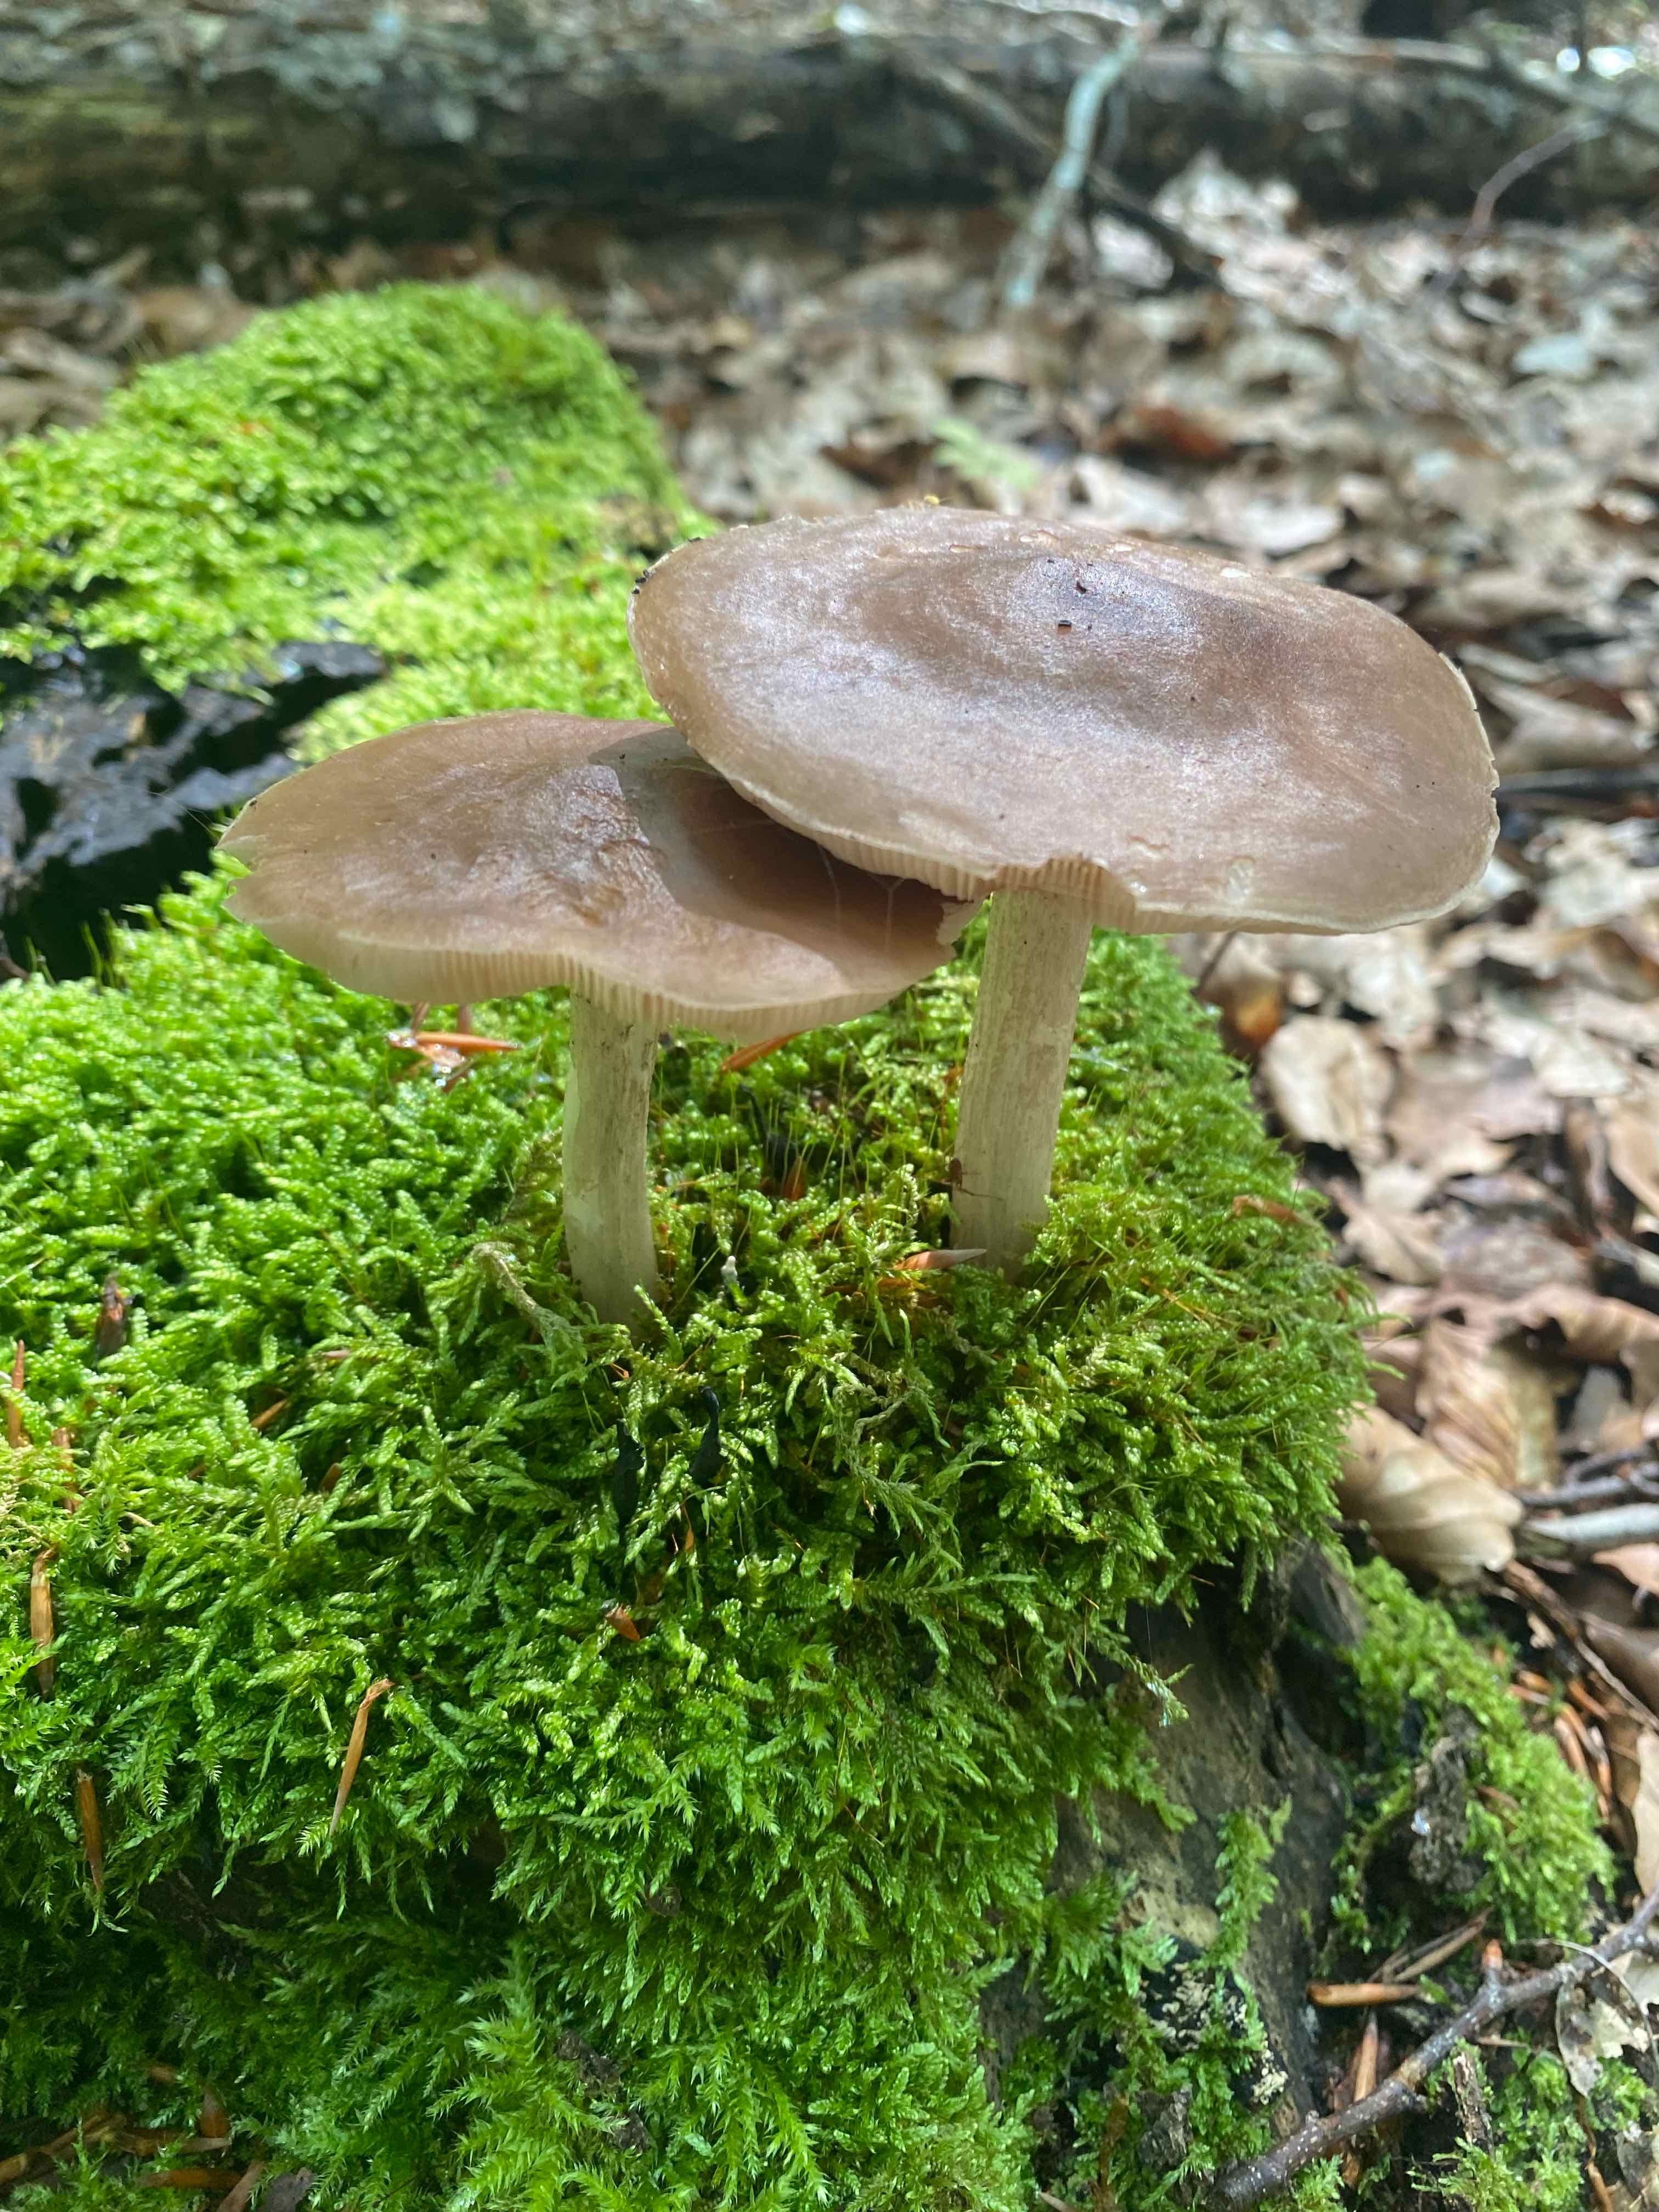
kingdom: Fungi
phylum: Basidiomycota
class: Agaricomycetes
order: Agaricales
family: Pluteaceae
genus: Pluteus
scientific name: Pluteus cervinus
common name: sodfarvet skærmhat
